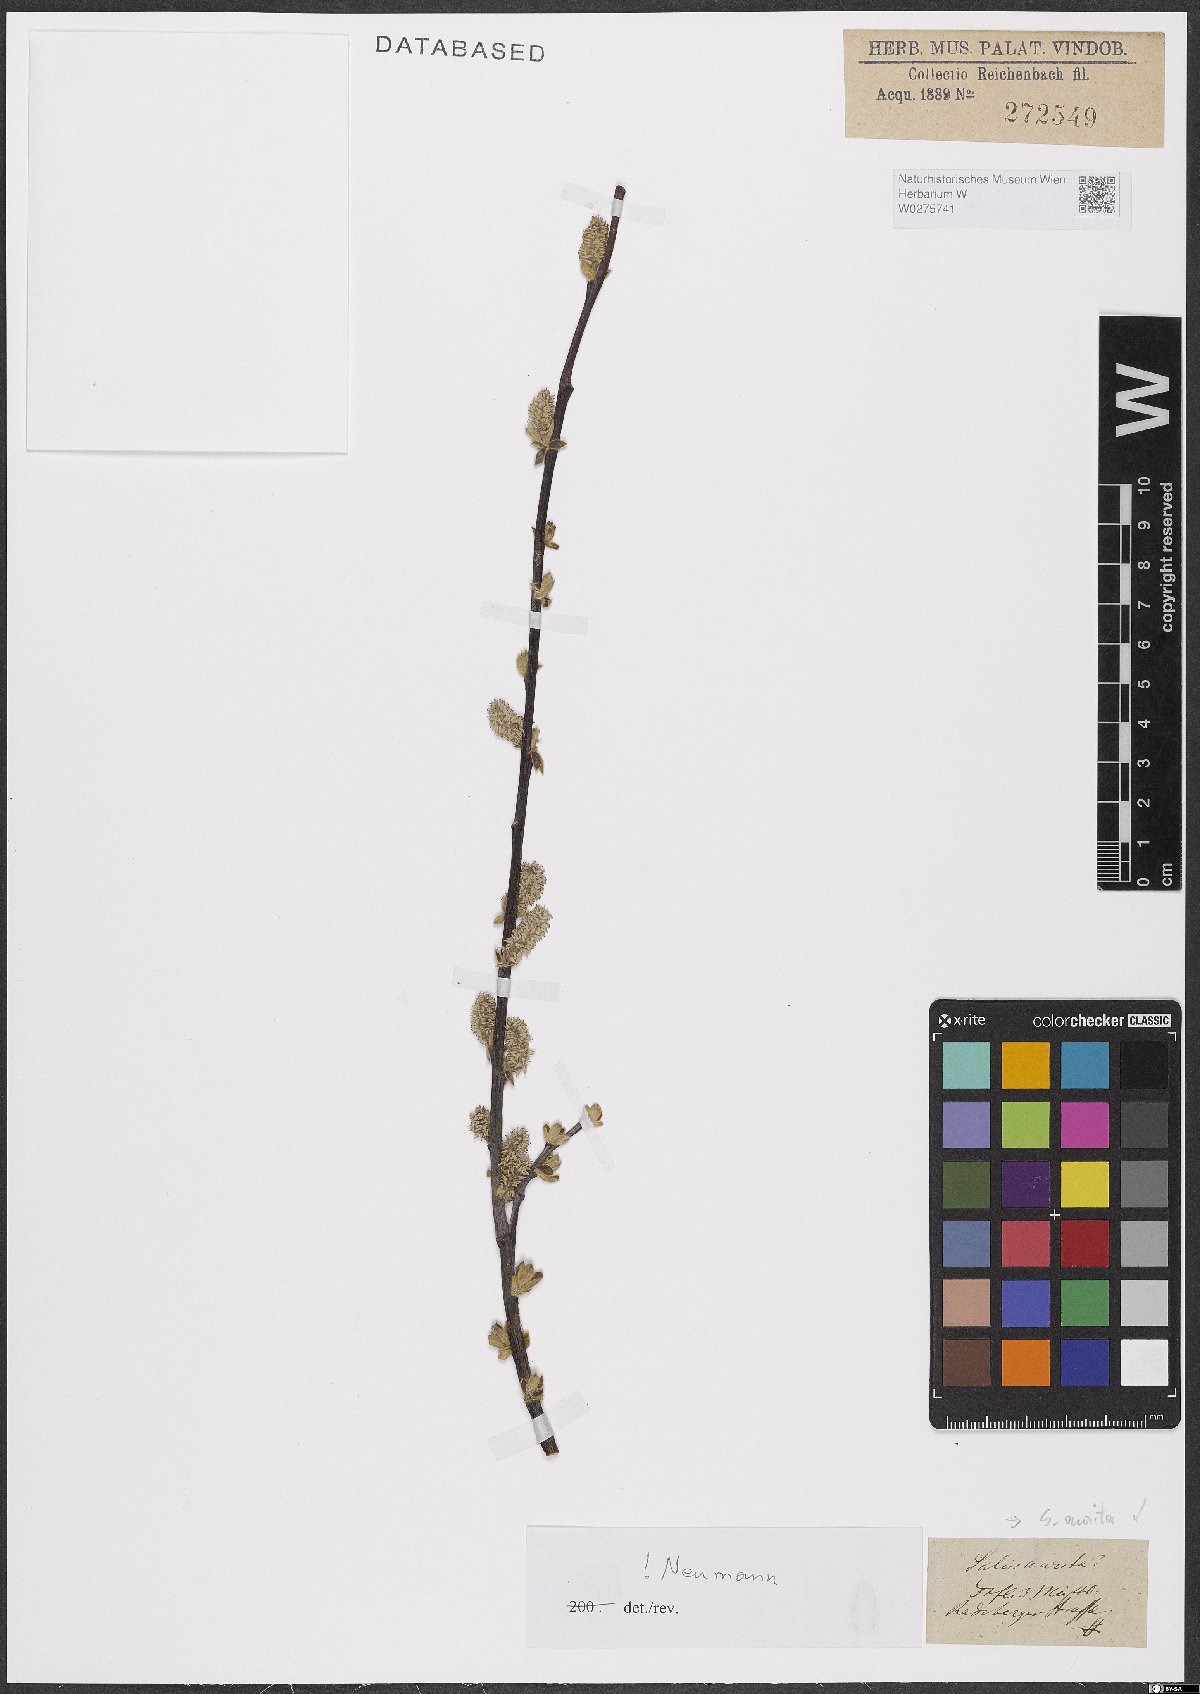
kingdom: Plantae
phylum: Tracheophyta
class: Magnoliopsida
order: Malpighiales
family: Salicaceae
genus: Salix
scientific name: Salix aurita
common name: Eared willow
